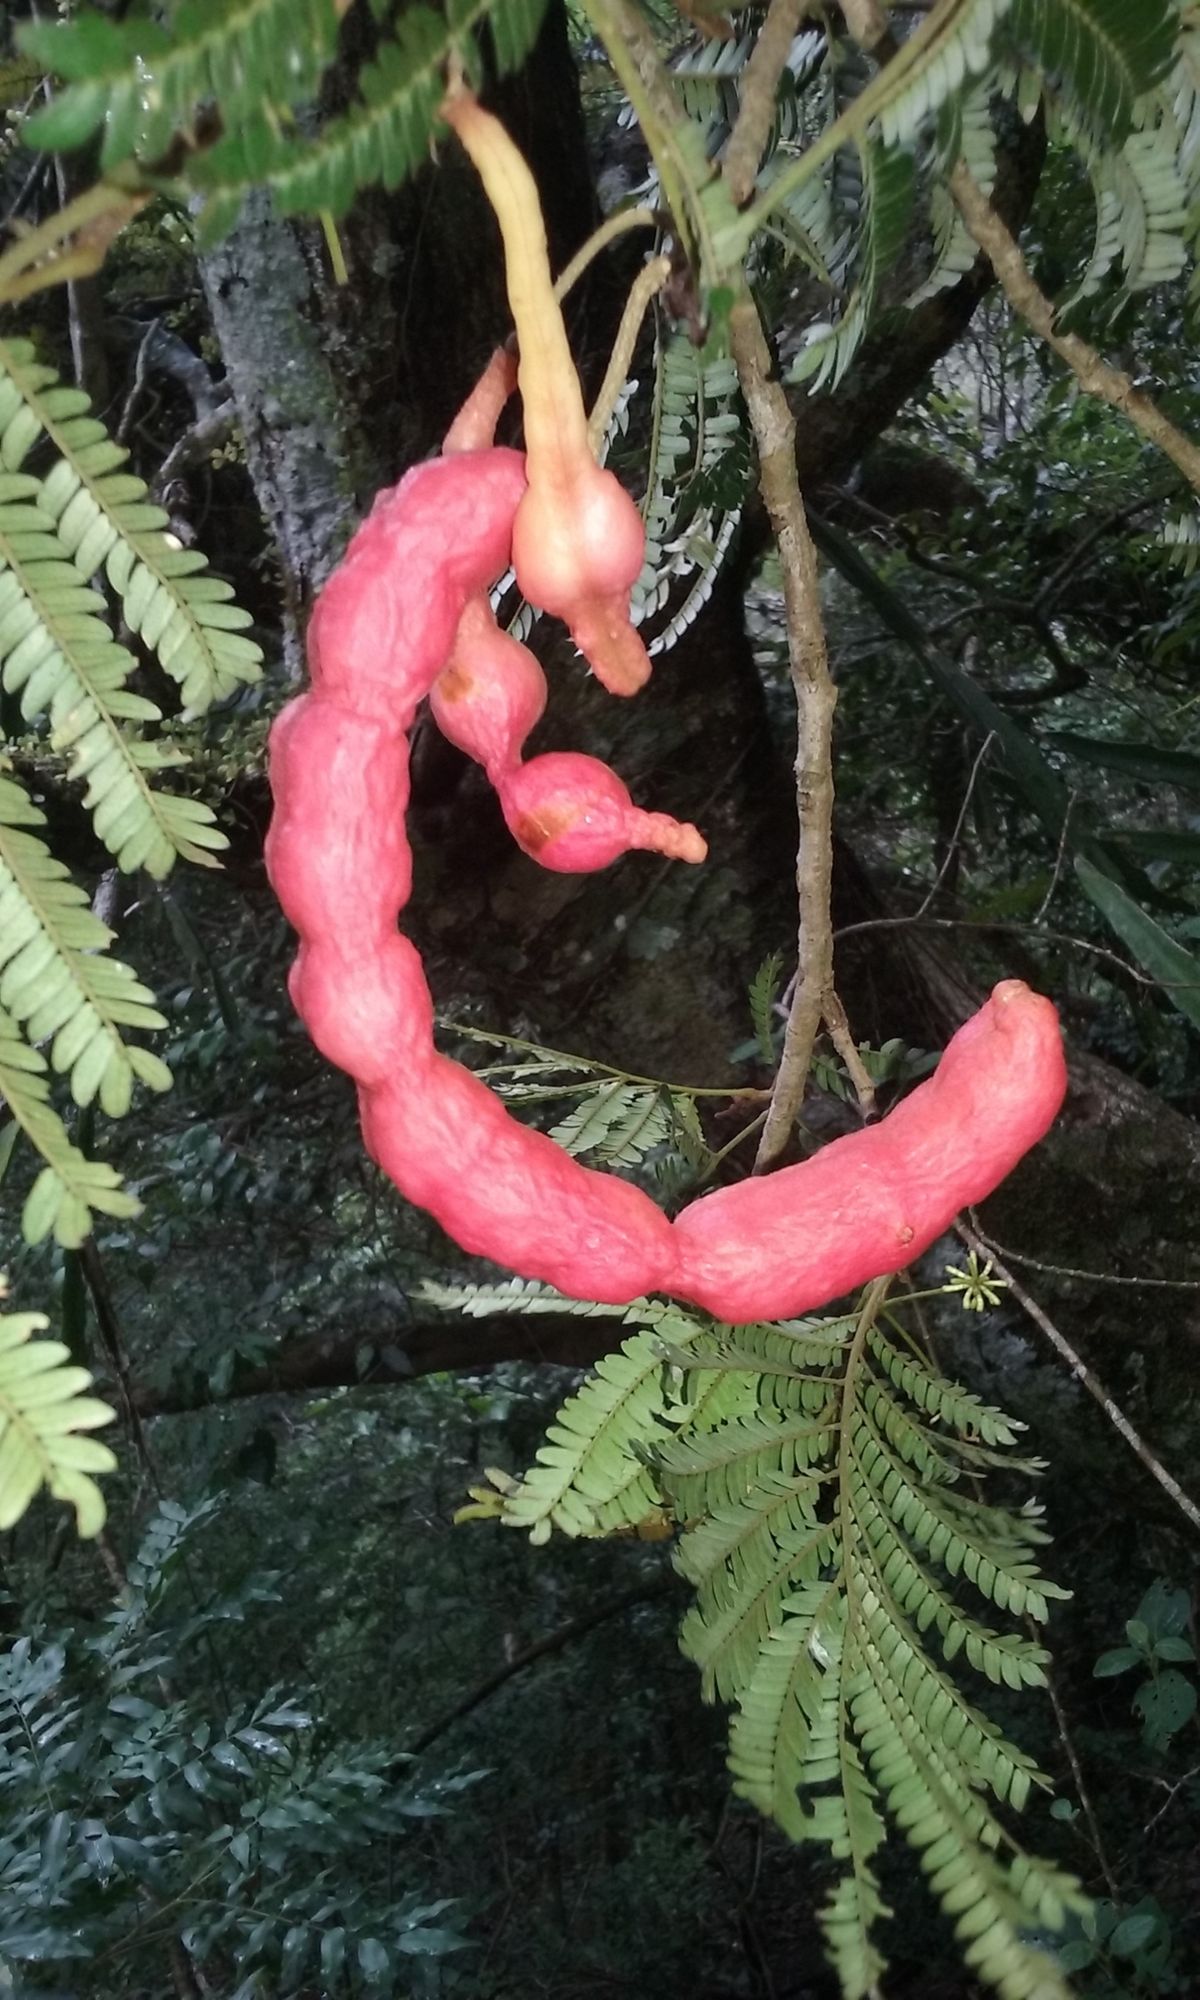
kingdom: Plantae
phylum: Tracheophyta
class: Magnoliopsida
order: Fabales
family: Fabaceae
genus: Cojoba
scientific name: Cojoba arborea
